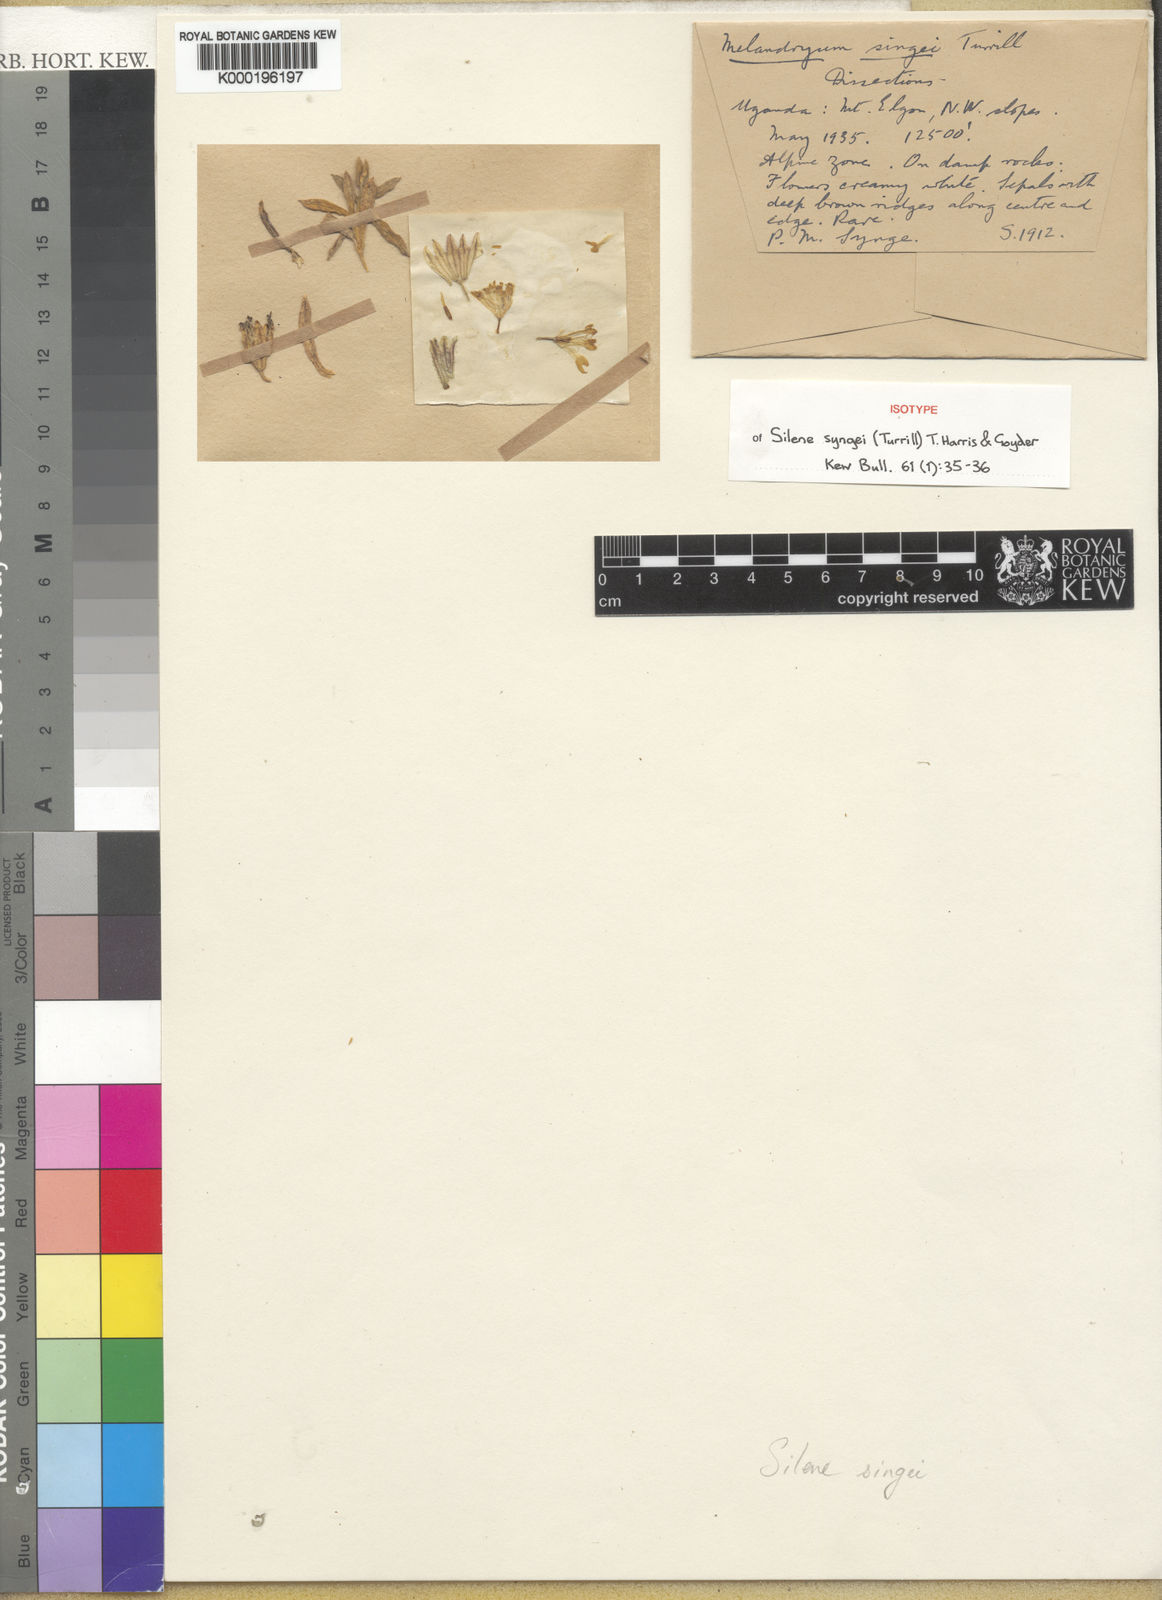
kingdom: Plantae
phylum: Tracheophyta
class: Magnoliopsida
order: Caryophyllales
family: Caryophyllaceae
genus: Silene
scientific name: Silene syngei
